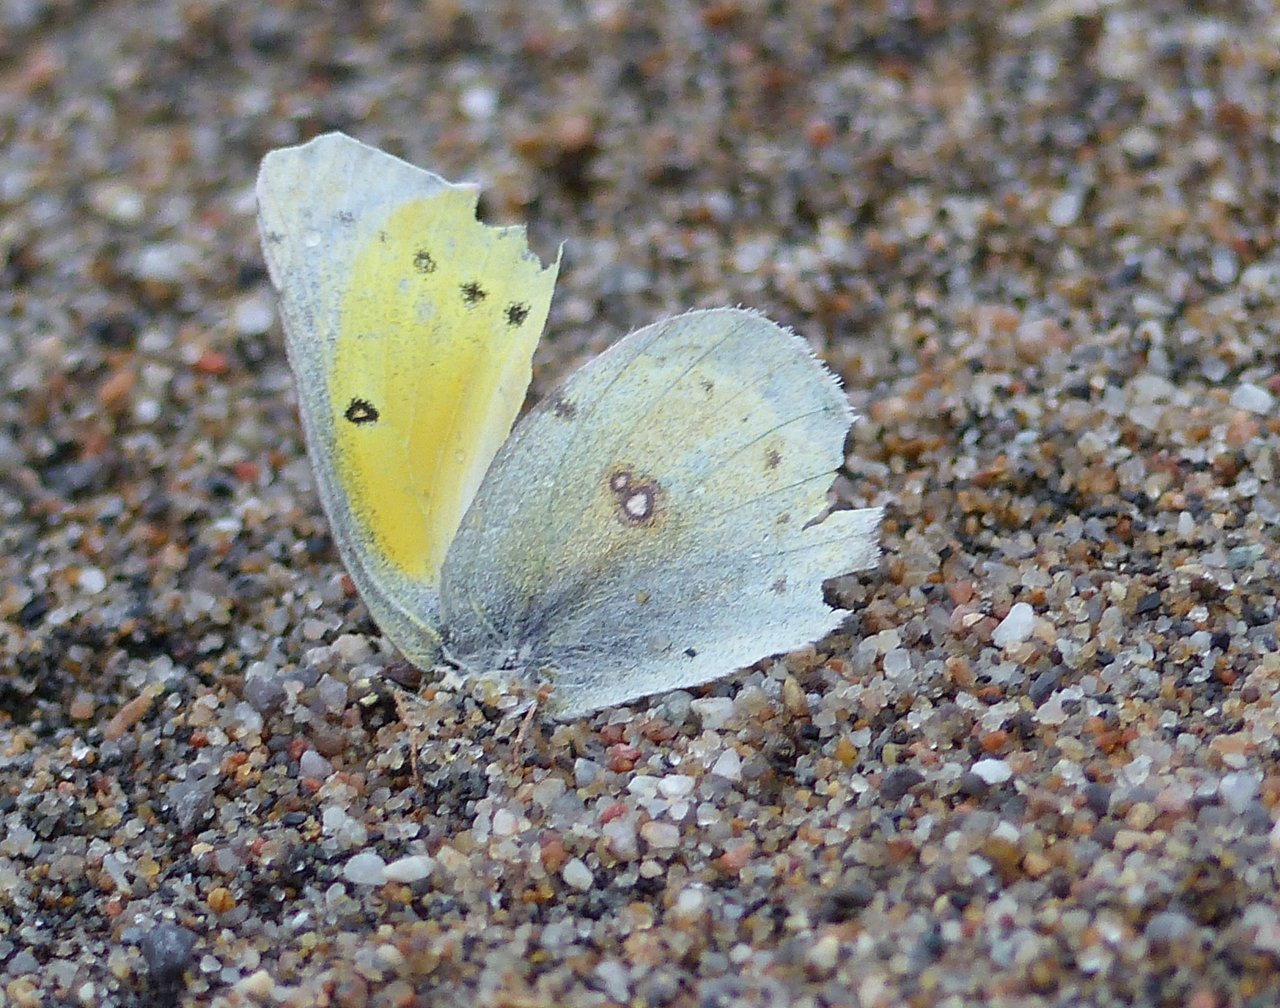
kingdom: Animalia
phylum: Arthropoda
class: Insecta
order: Lepidoptera
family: Pieridae
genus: Colias
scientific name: Colias eurytheme
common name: Orange Sulphur
